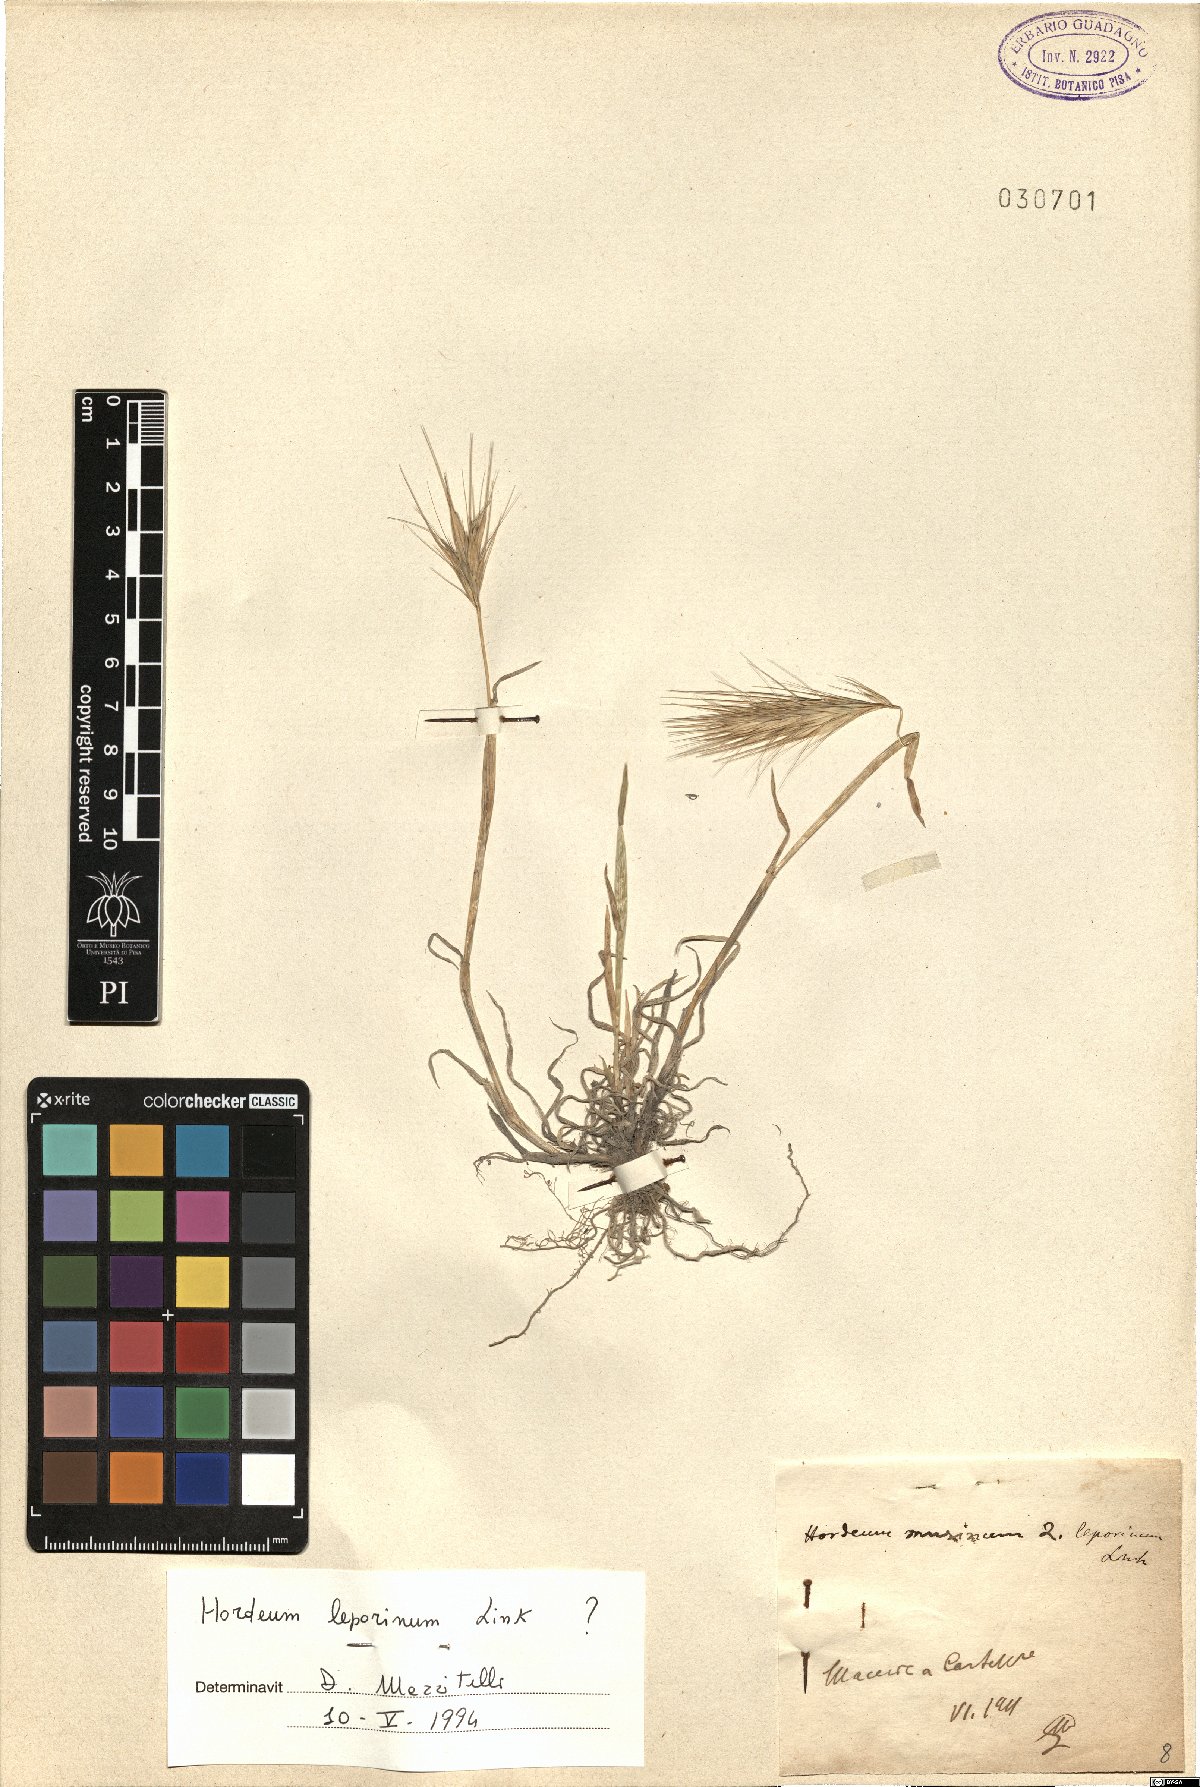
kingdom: Plantae
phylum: Tracheophyta
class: Liliopsida
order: Poales
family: Poaceae
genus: Hordeum
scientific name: Hordeum murinum
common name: Wall barley
